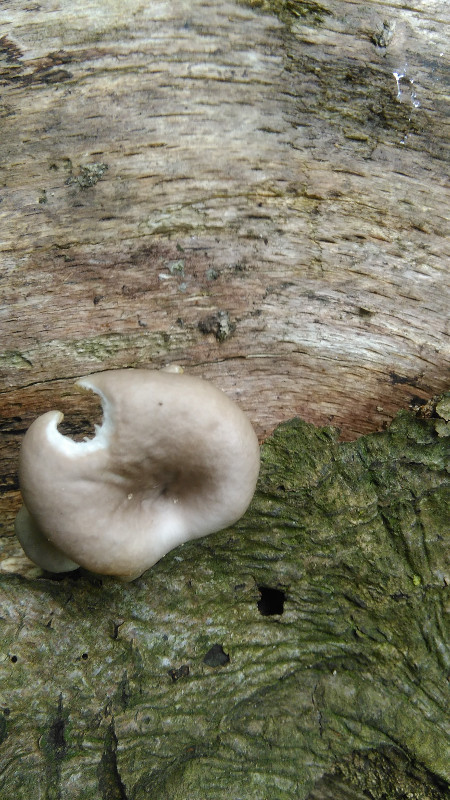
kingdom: Fungi
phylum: Basidiomycota
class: Agaricomycetes
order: Agaricales
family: Pleurotaceae
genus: Pleurotus
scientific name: Pleurotus pulmonarius
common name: sommer-østershat
